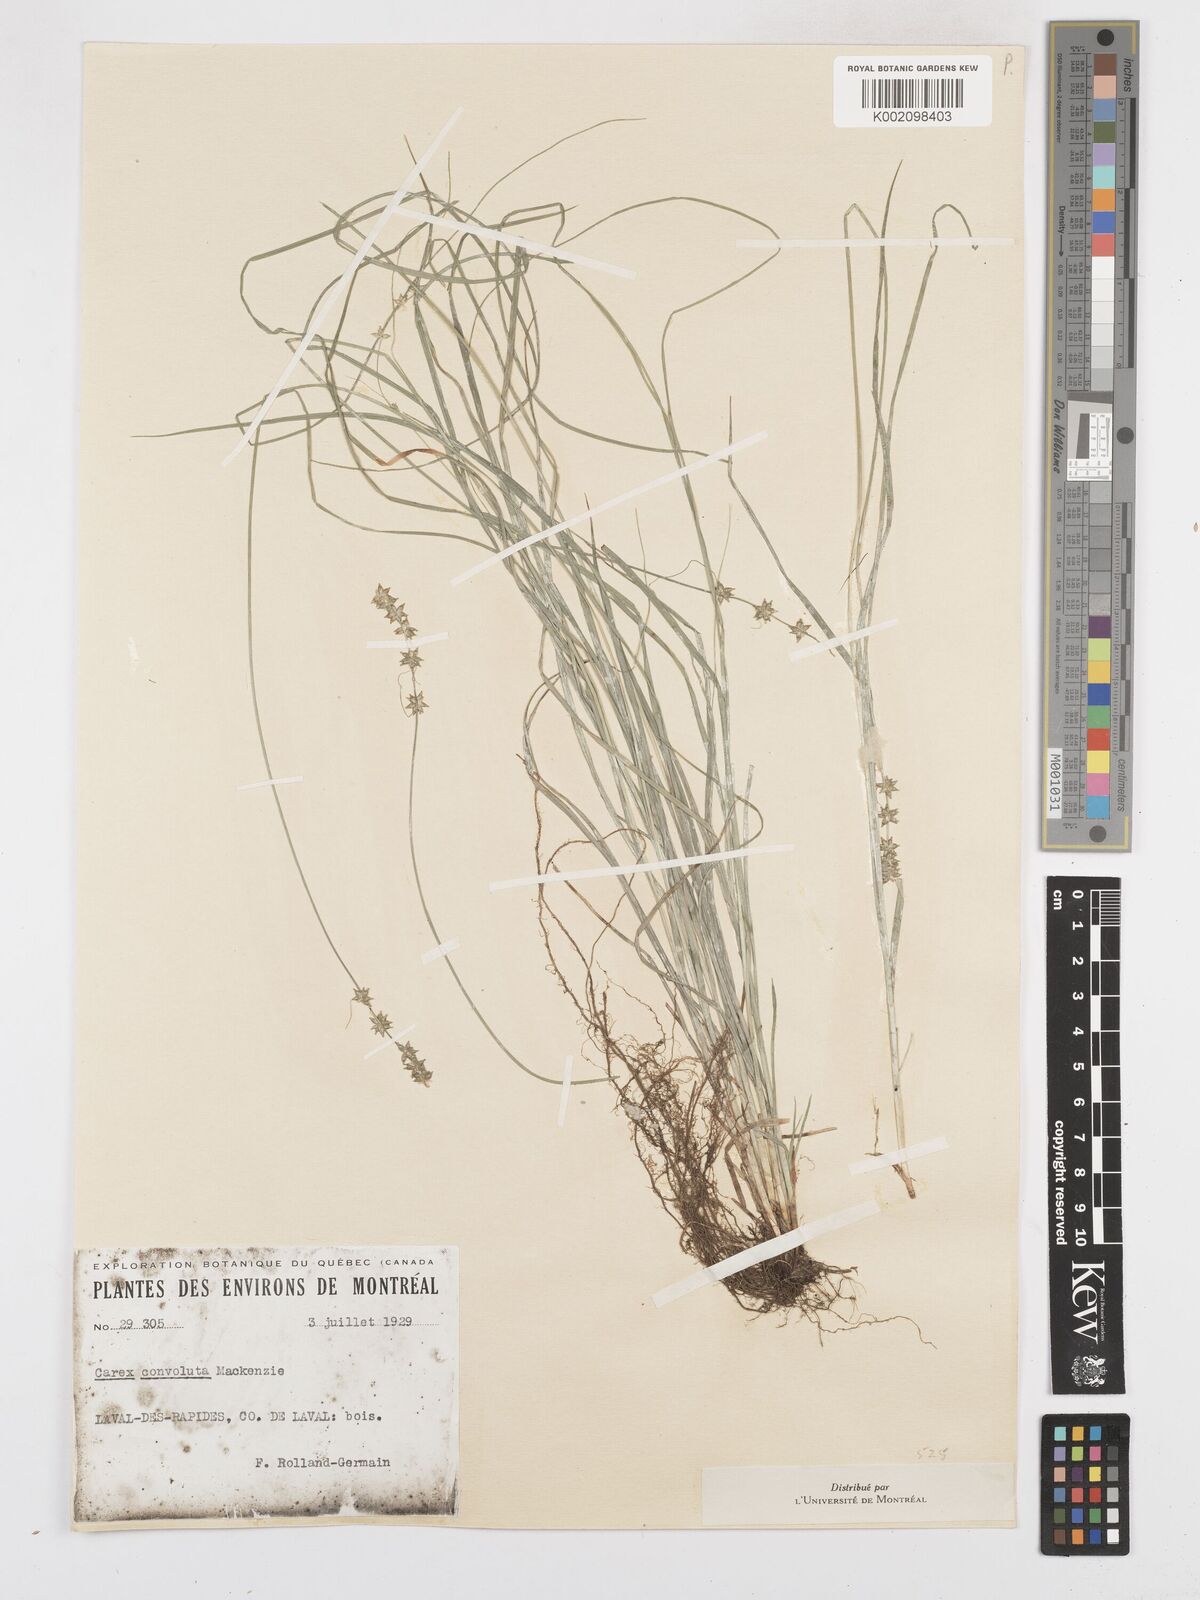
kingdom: Plantae
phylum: Tracheophyta
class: Liliopsida
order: Poales
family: Cyperaceae
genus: Carex
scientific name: Carex rosea
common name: Curly-styled wood sedge
